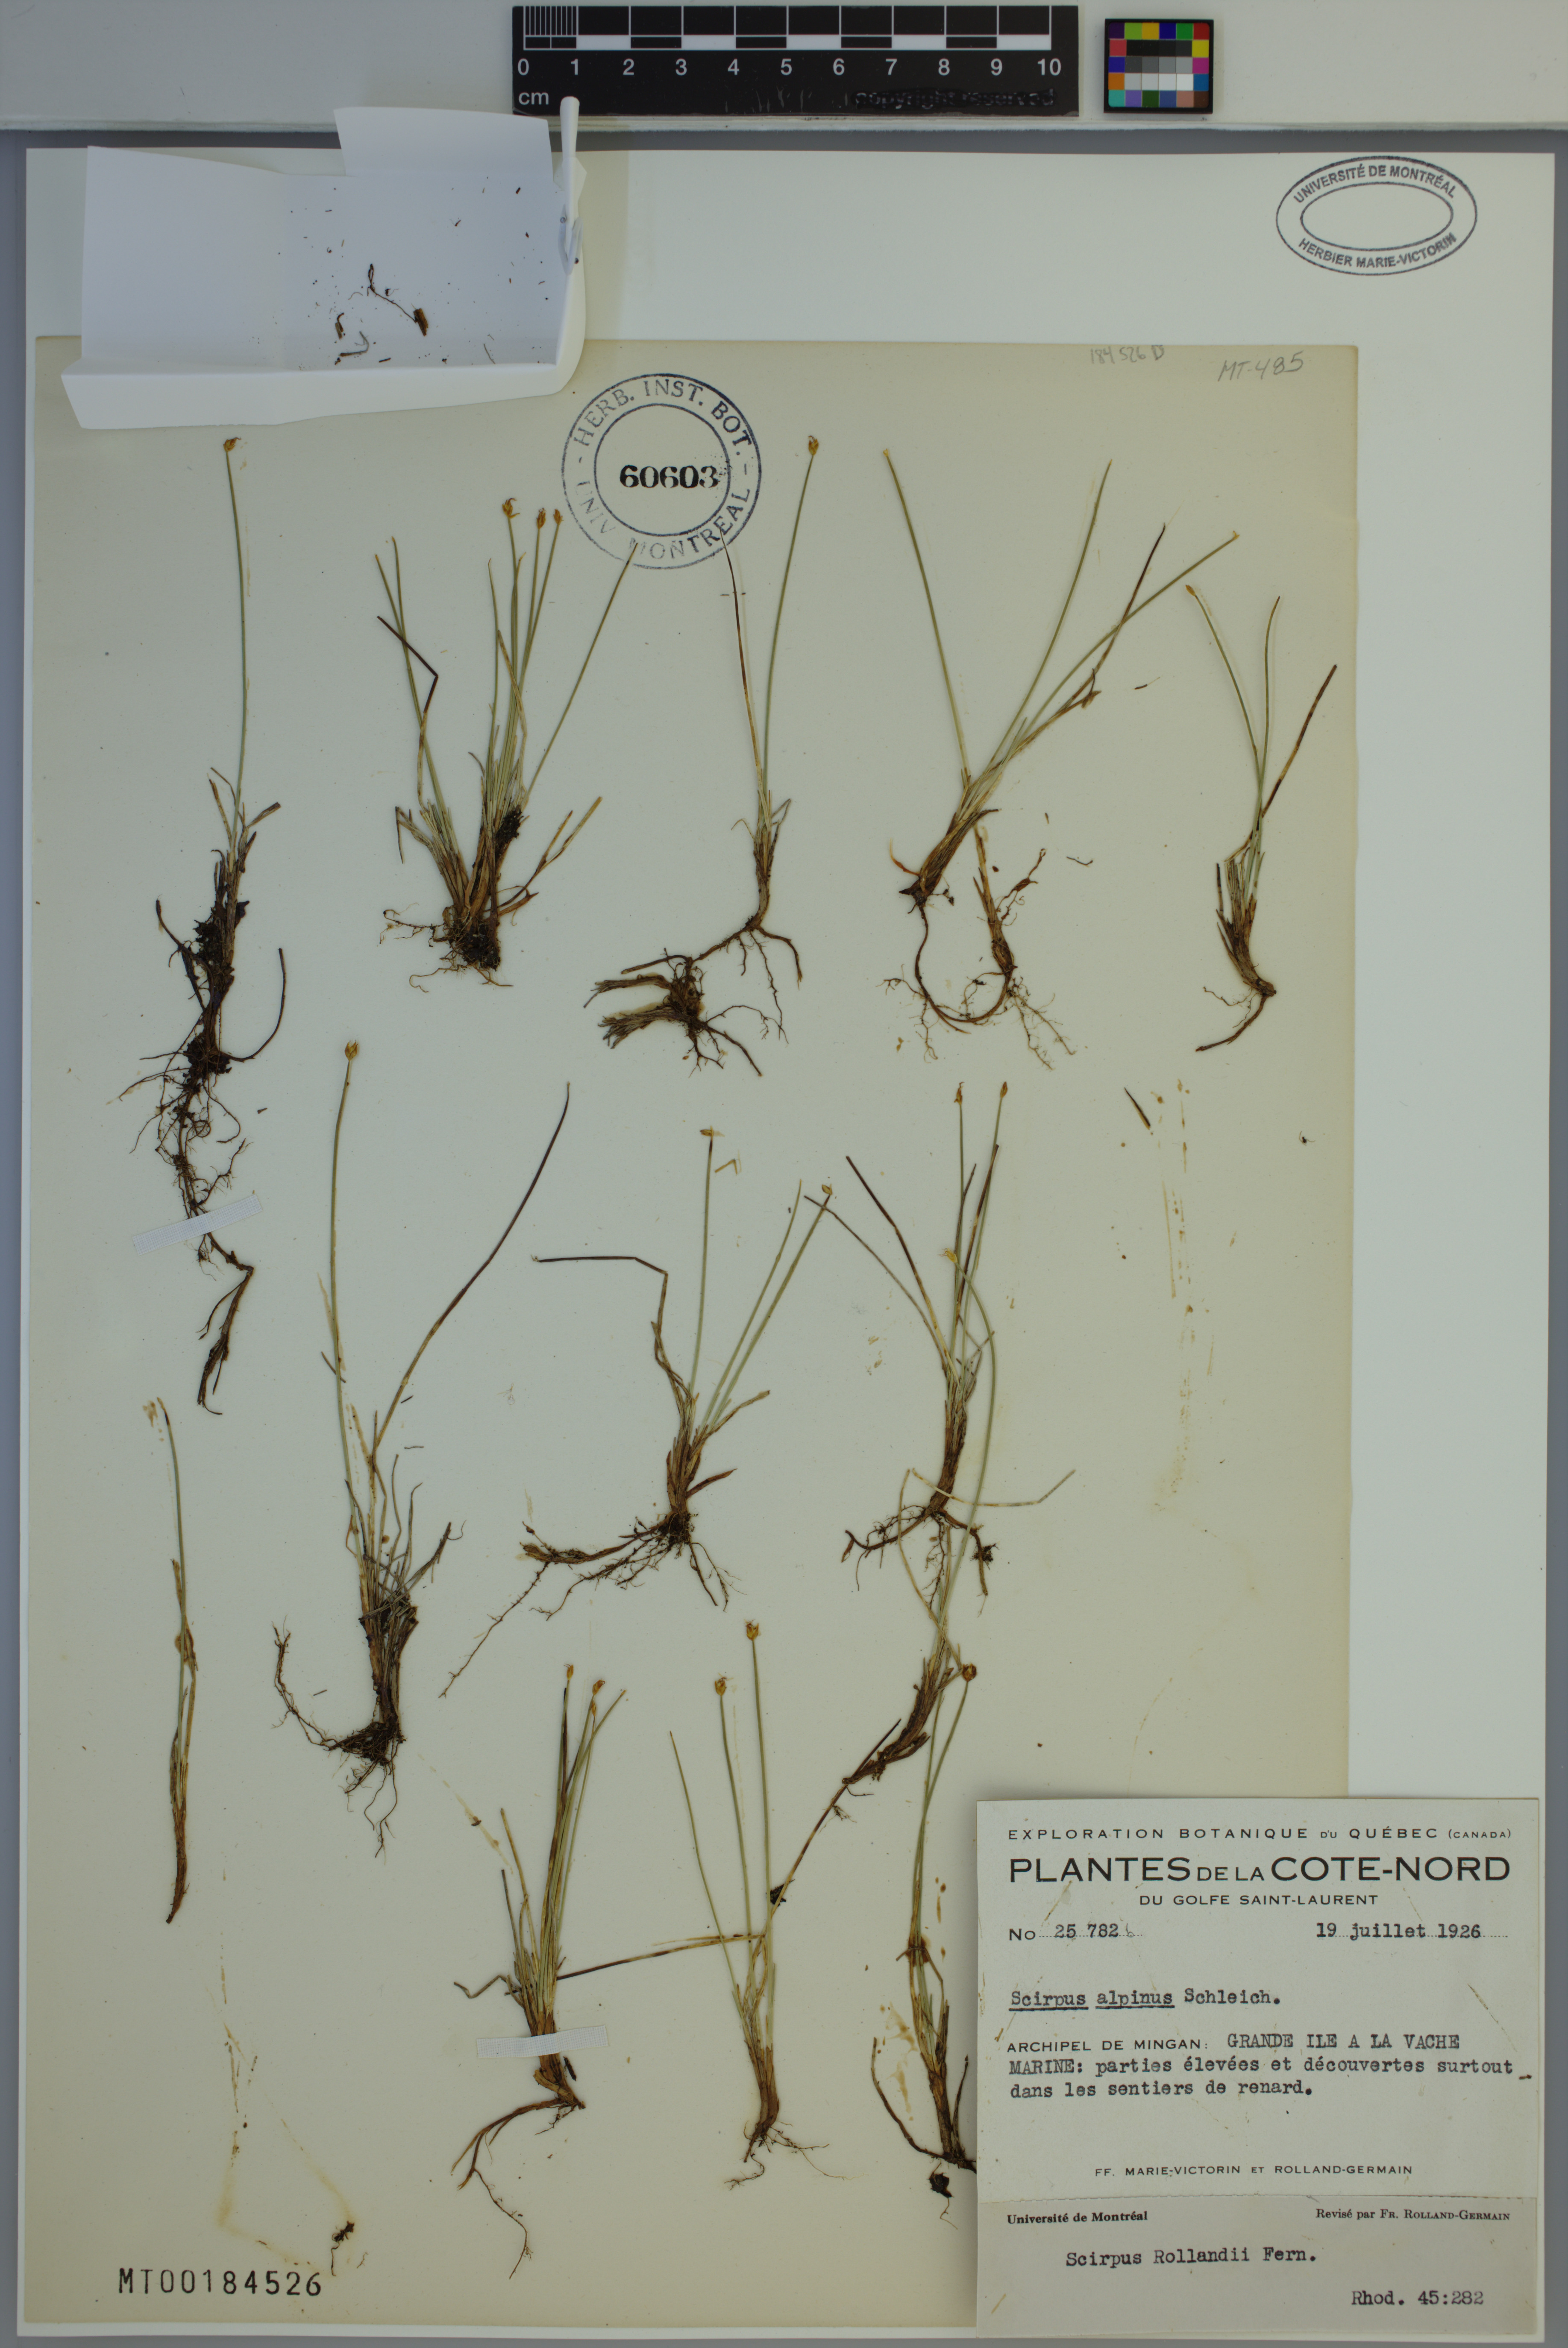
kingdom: Plantae
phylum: Tracheophyta
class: Liliopsida
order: Poales
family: Cyperaceae
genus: Trichophorum
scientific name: Trichophorum pumilum
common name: Rolland's bulrush
